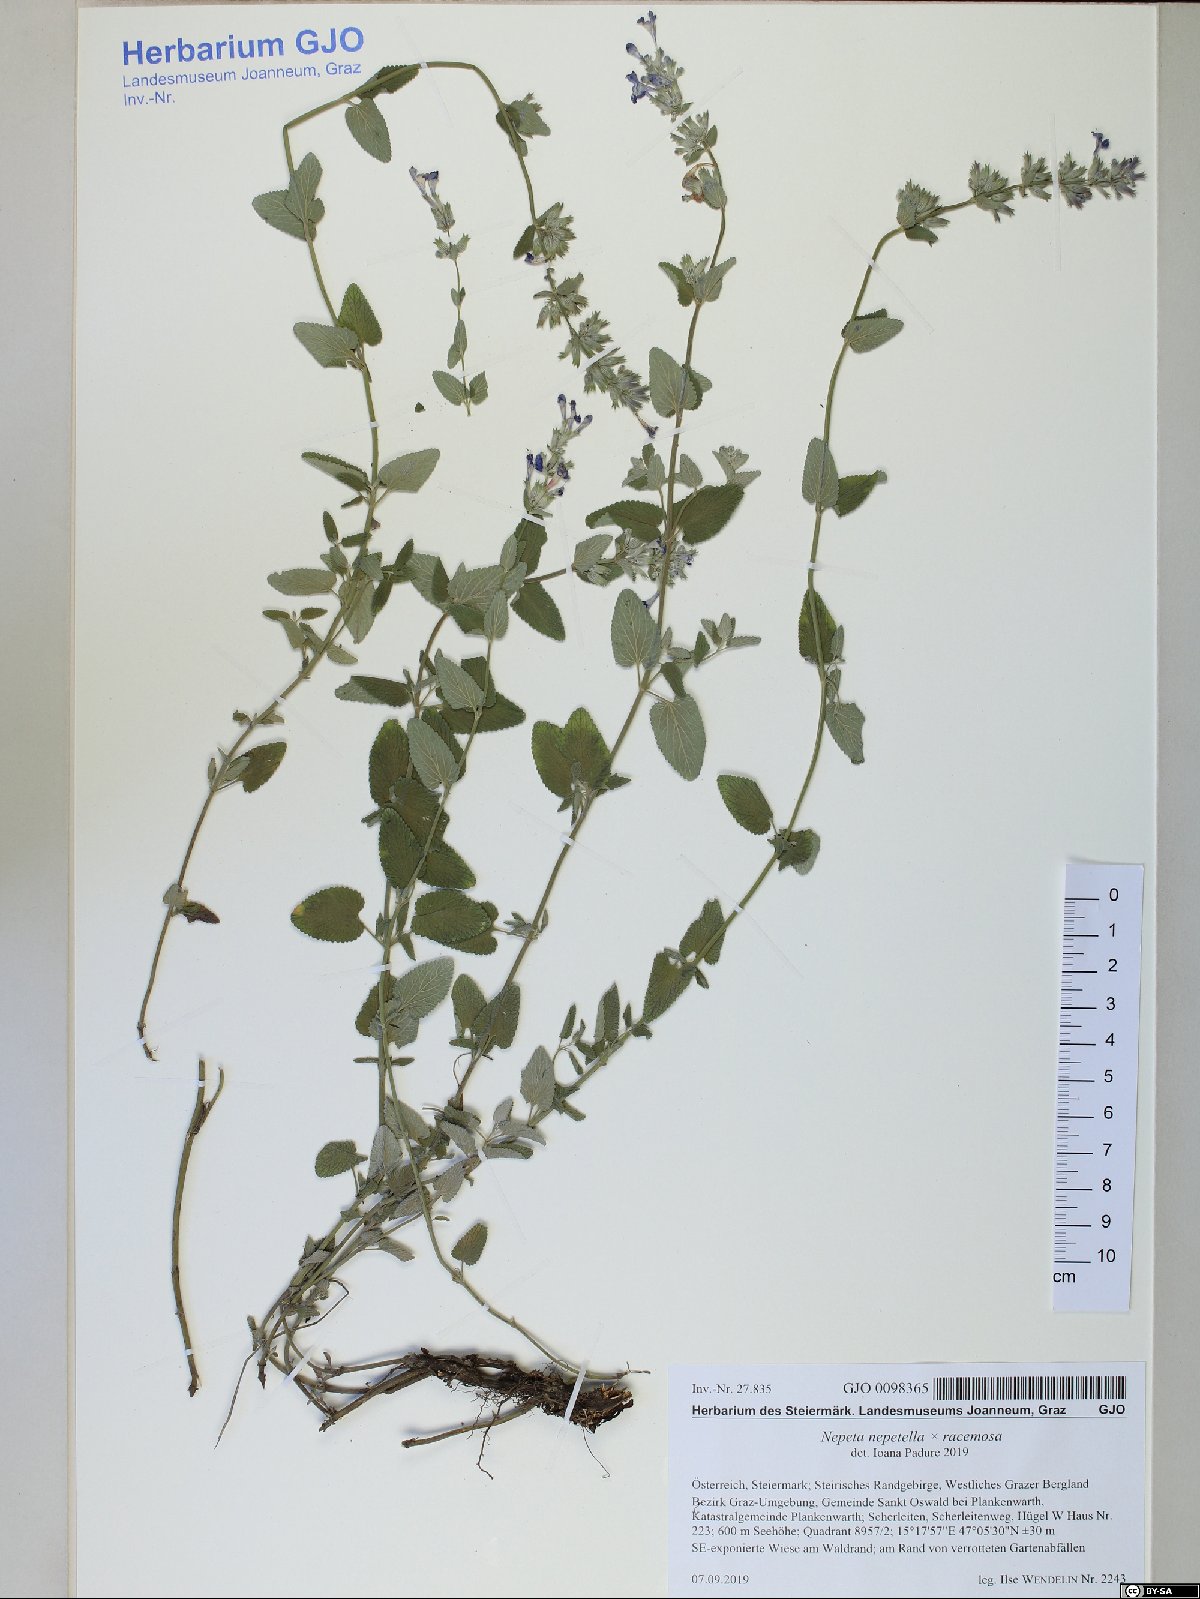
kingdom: Plantae
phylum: Tracheophyta
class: Magnoliopsida
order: Lamiales
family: Lamiaceae
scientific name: Lamiaceae
